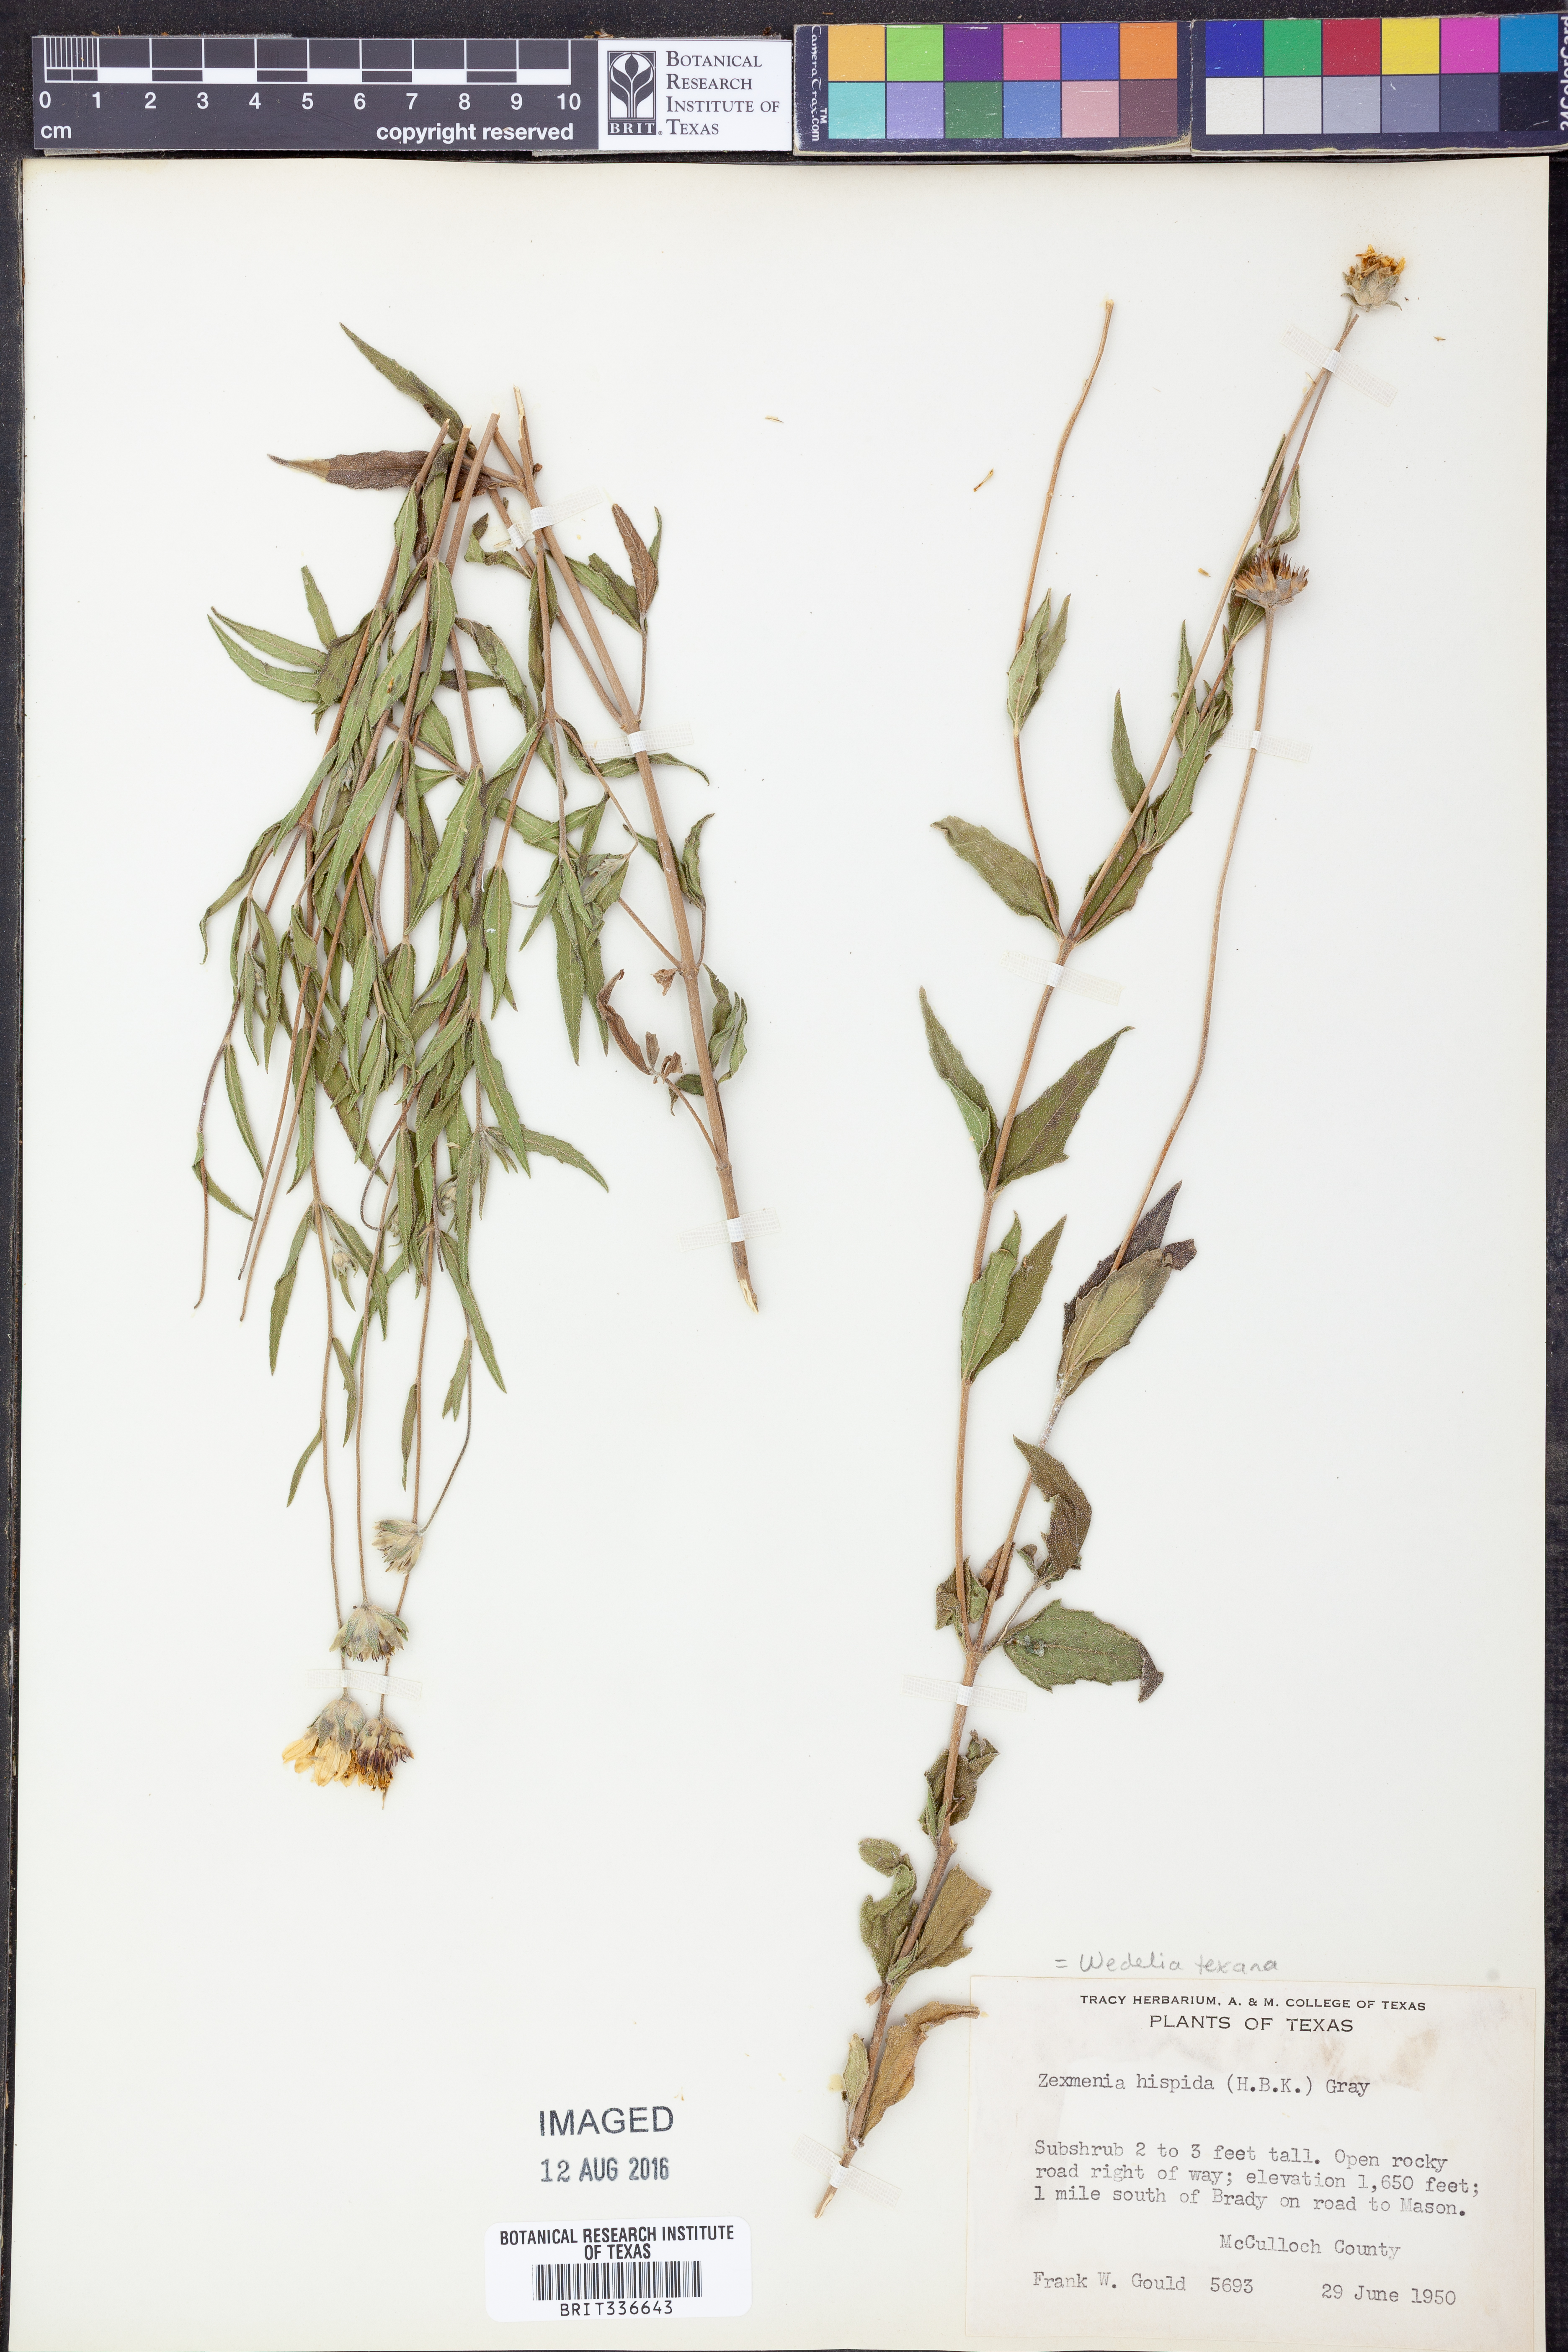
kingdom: Plantae
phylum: Tracheophyta
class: Magnoliopsida
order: Asterales
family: Asteraceae
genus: Wedelia
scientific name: Wedelia acapulcensis
